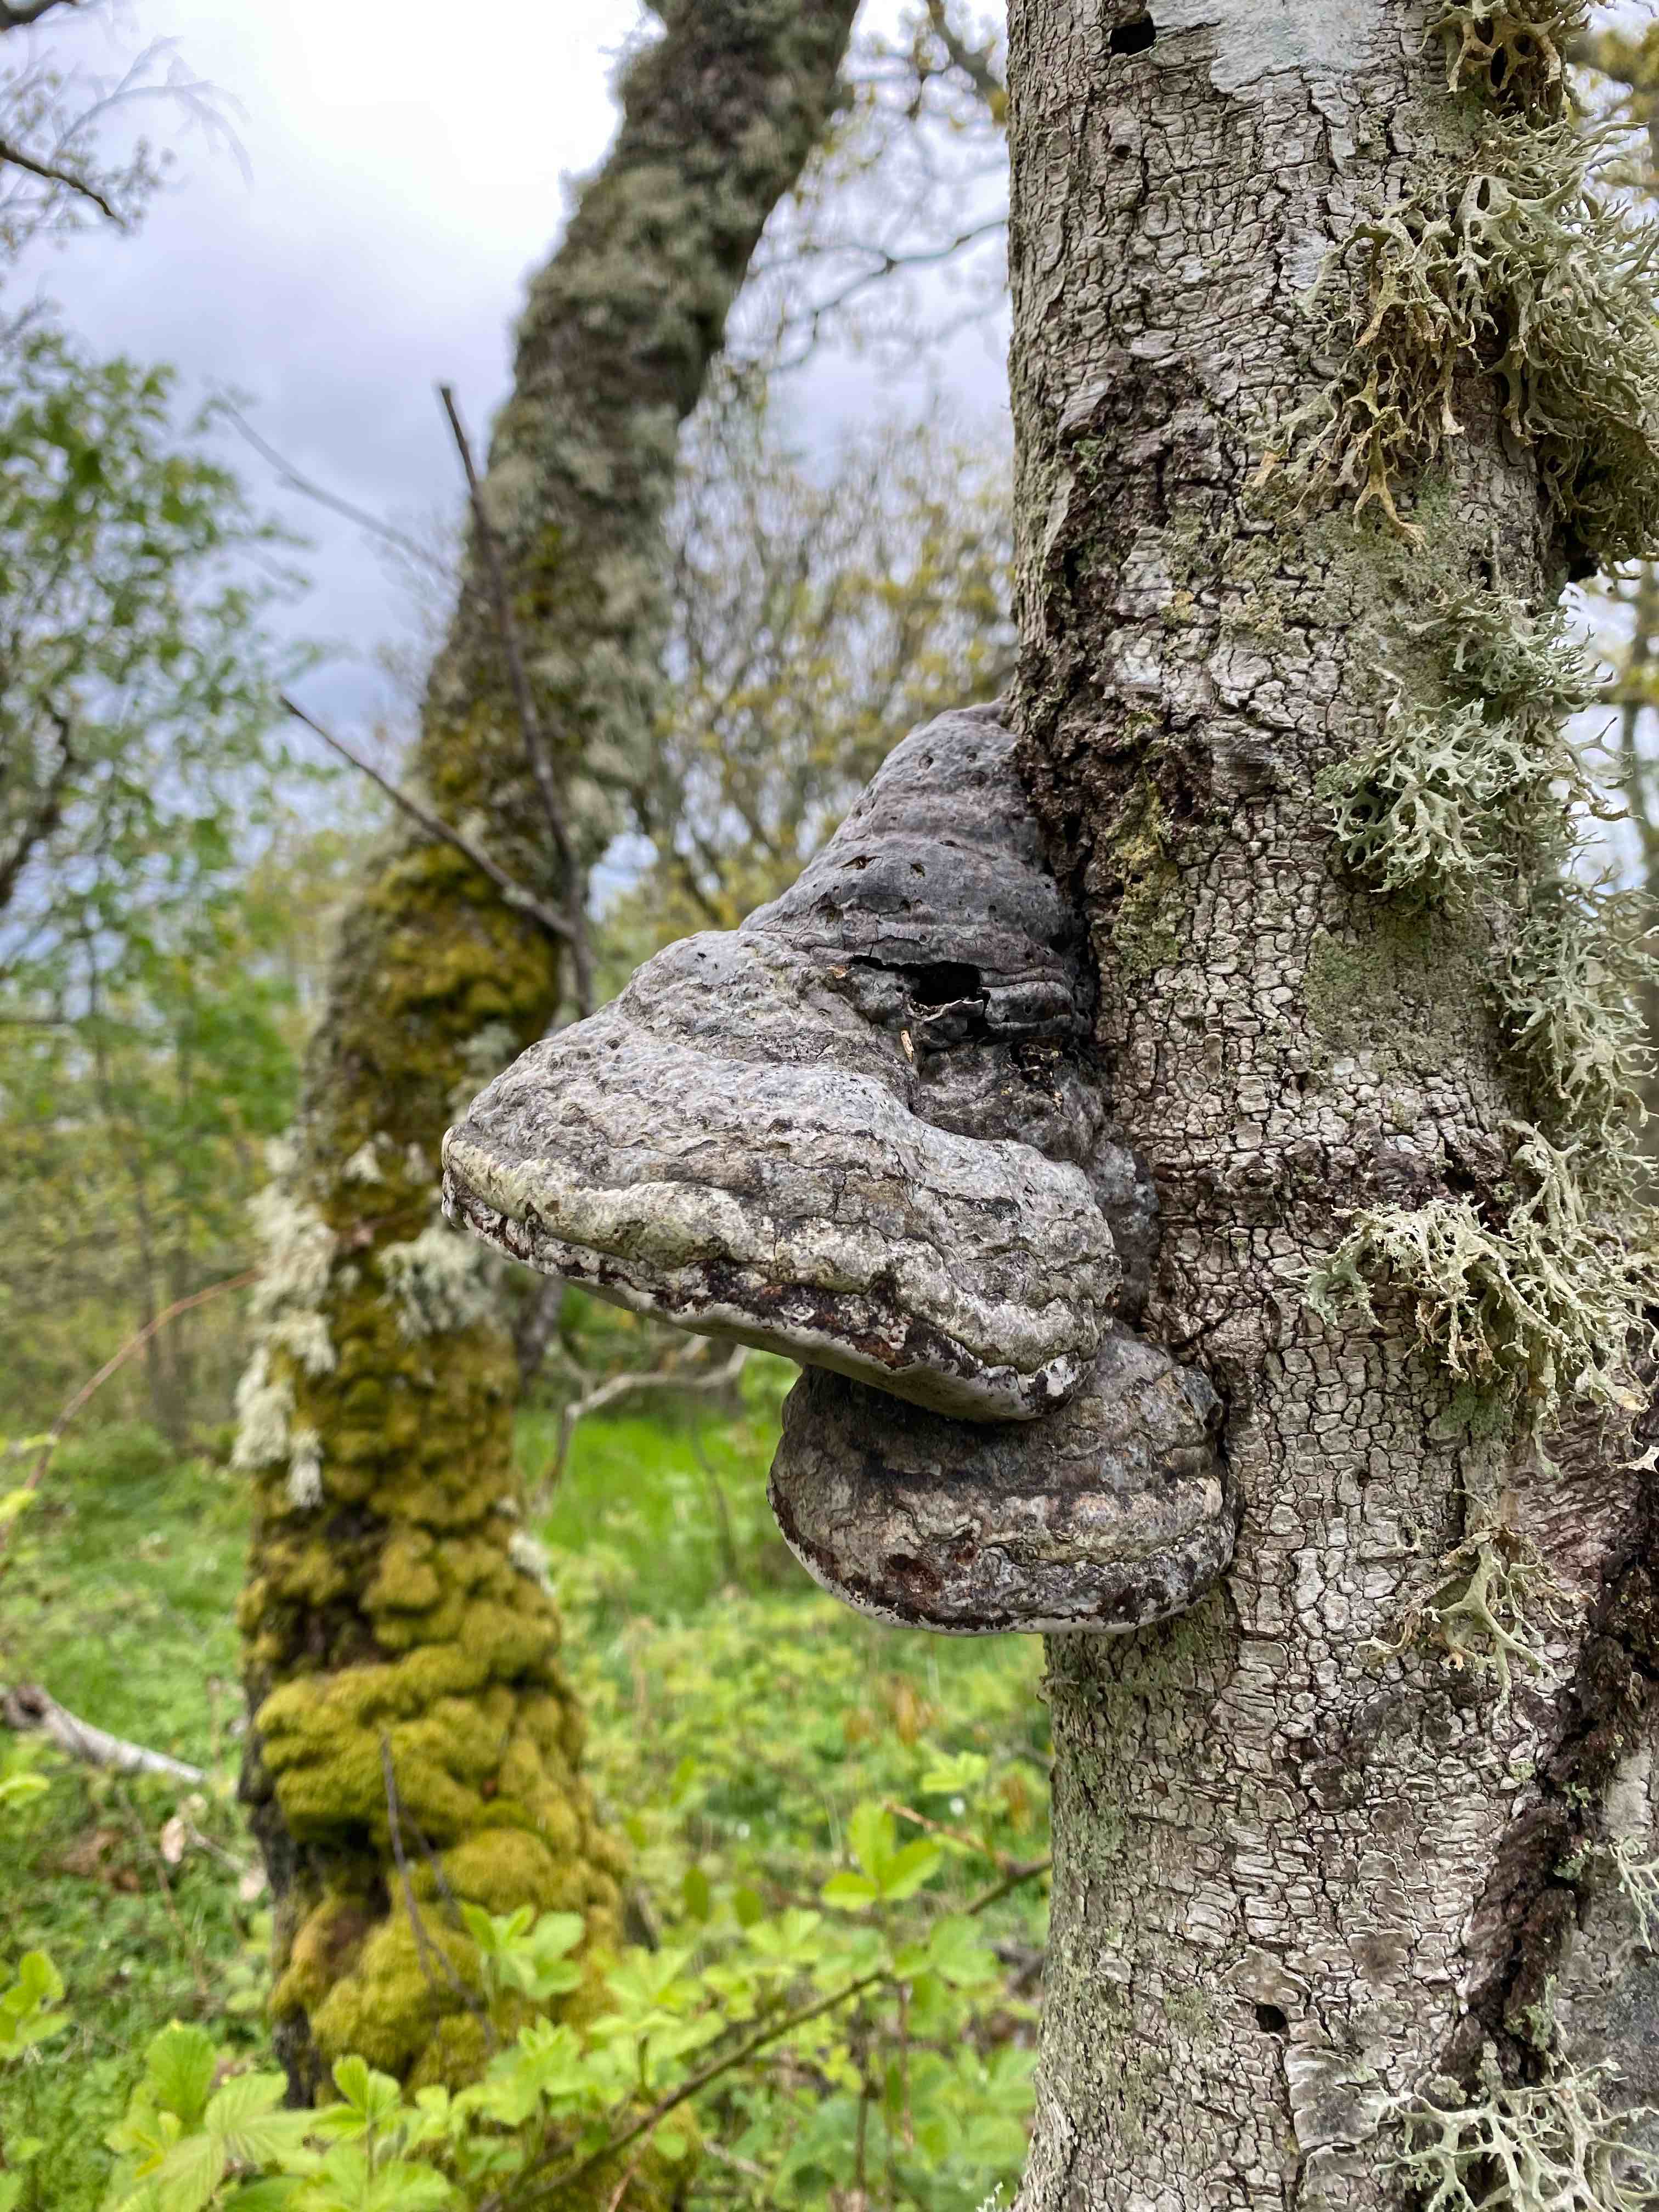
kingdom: Fungi
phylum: Basidiomycota
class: Agaricomycetes
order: Polyporales
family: Polyporaceae
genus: Fomes
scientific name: Fomes fomentarius
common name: tøndersvamp
